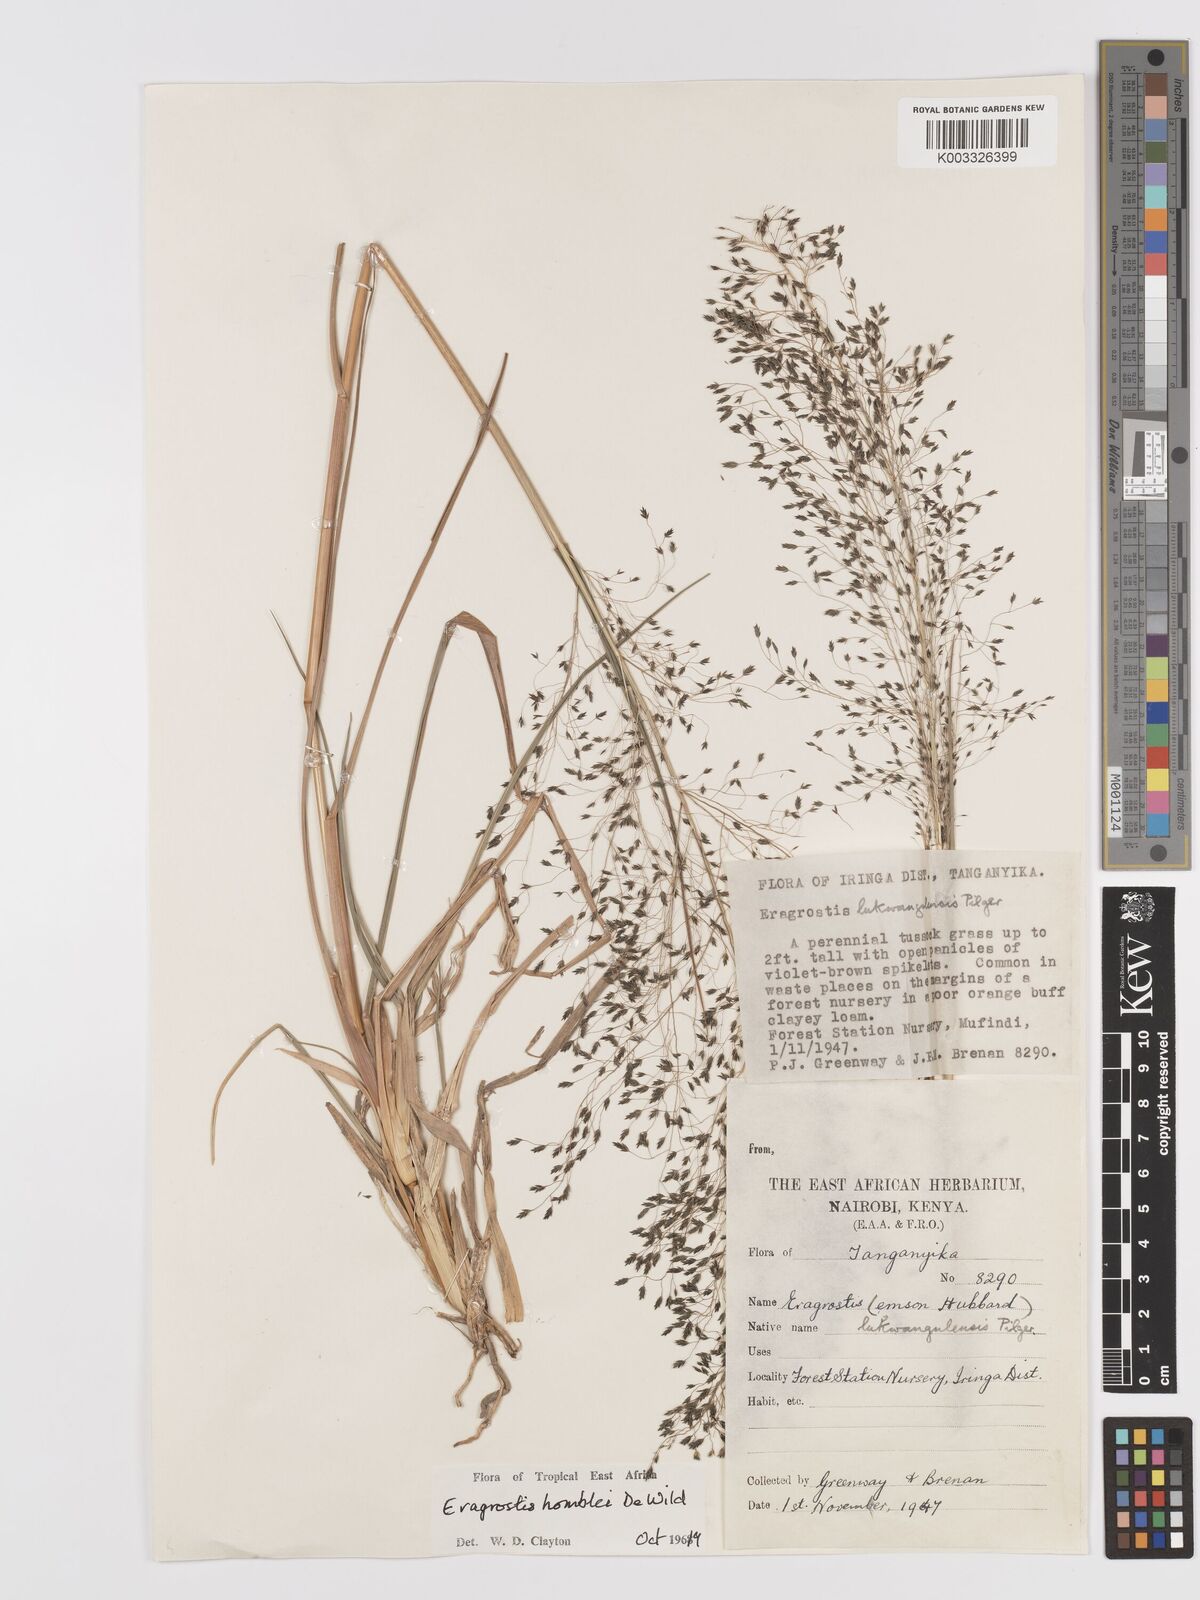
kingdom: Plantae
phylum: Tracheophyta
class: Liliopsida
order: Poales
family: Poaceae
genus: Eragrostis
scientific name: Eragrostis homblei
